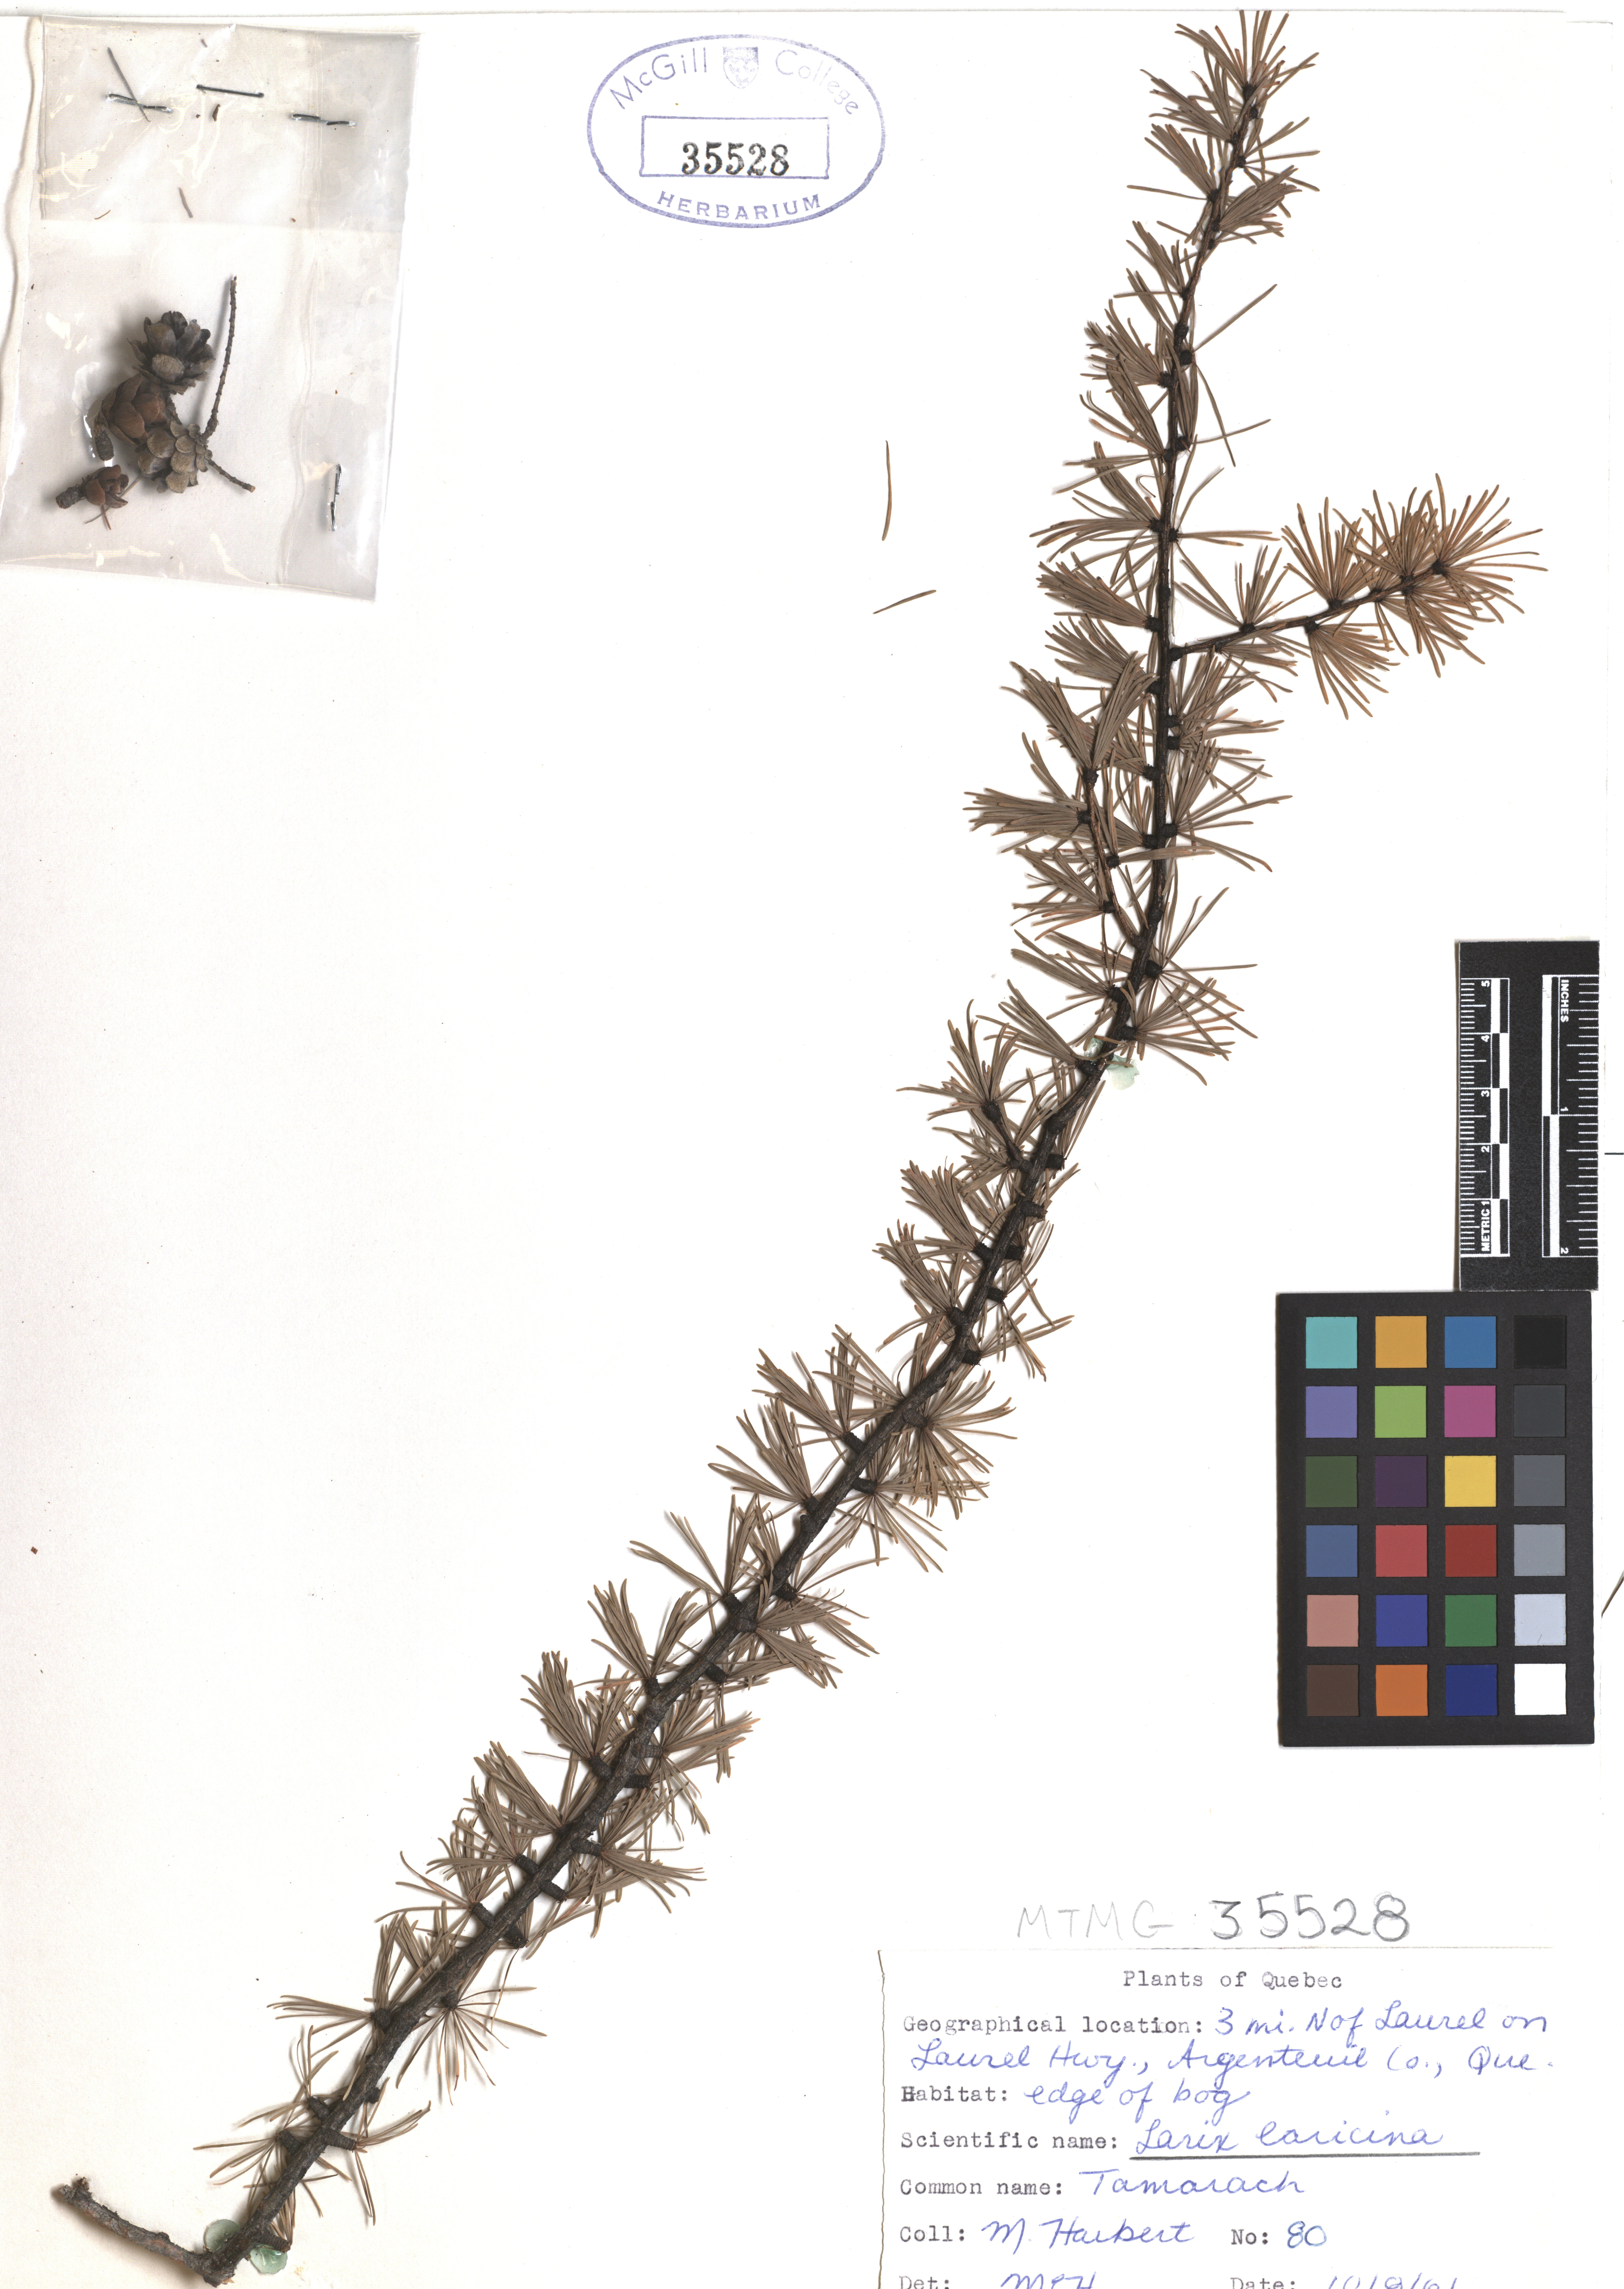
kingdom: Plantae
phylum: Tracheophyta
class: Pinopsida
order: Pinales
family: Pinaceae
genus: Larix
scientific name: Larix laricina
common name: American larch
